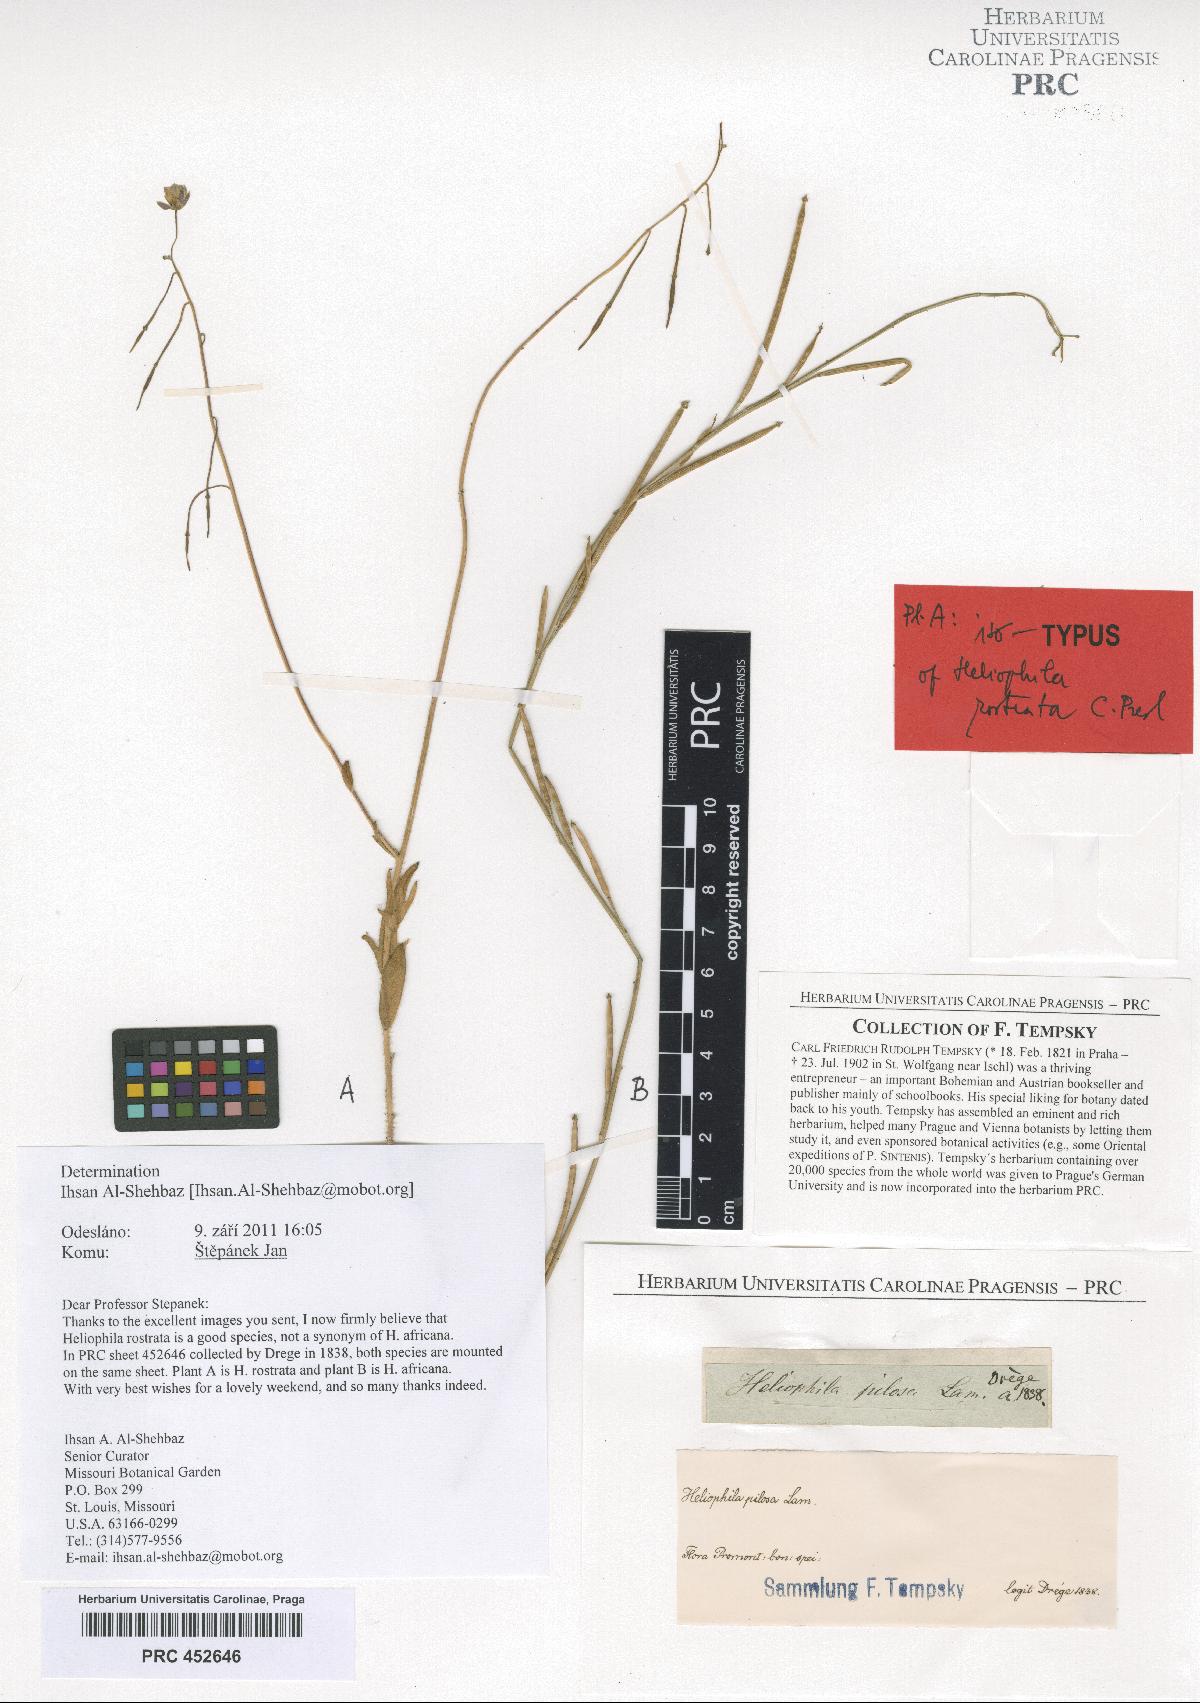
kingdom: Plantae
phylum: Tracheophyta
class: Magnoliopsida
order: Brassicales
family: Brassicaceae
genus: Heliophila
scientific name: Heliophila africana
